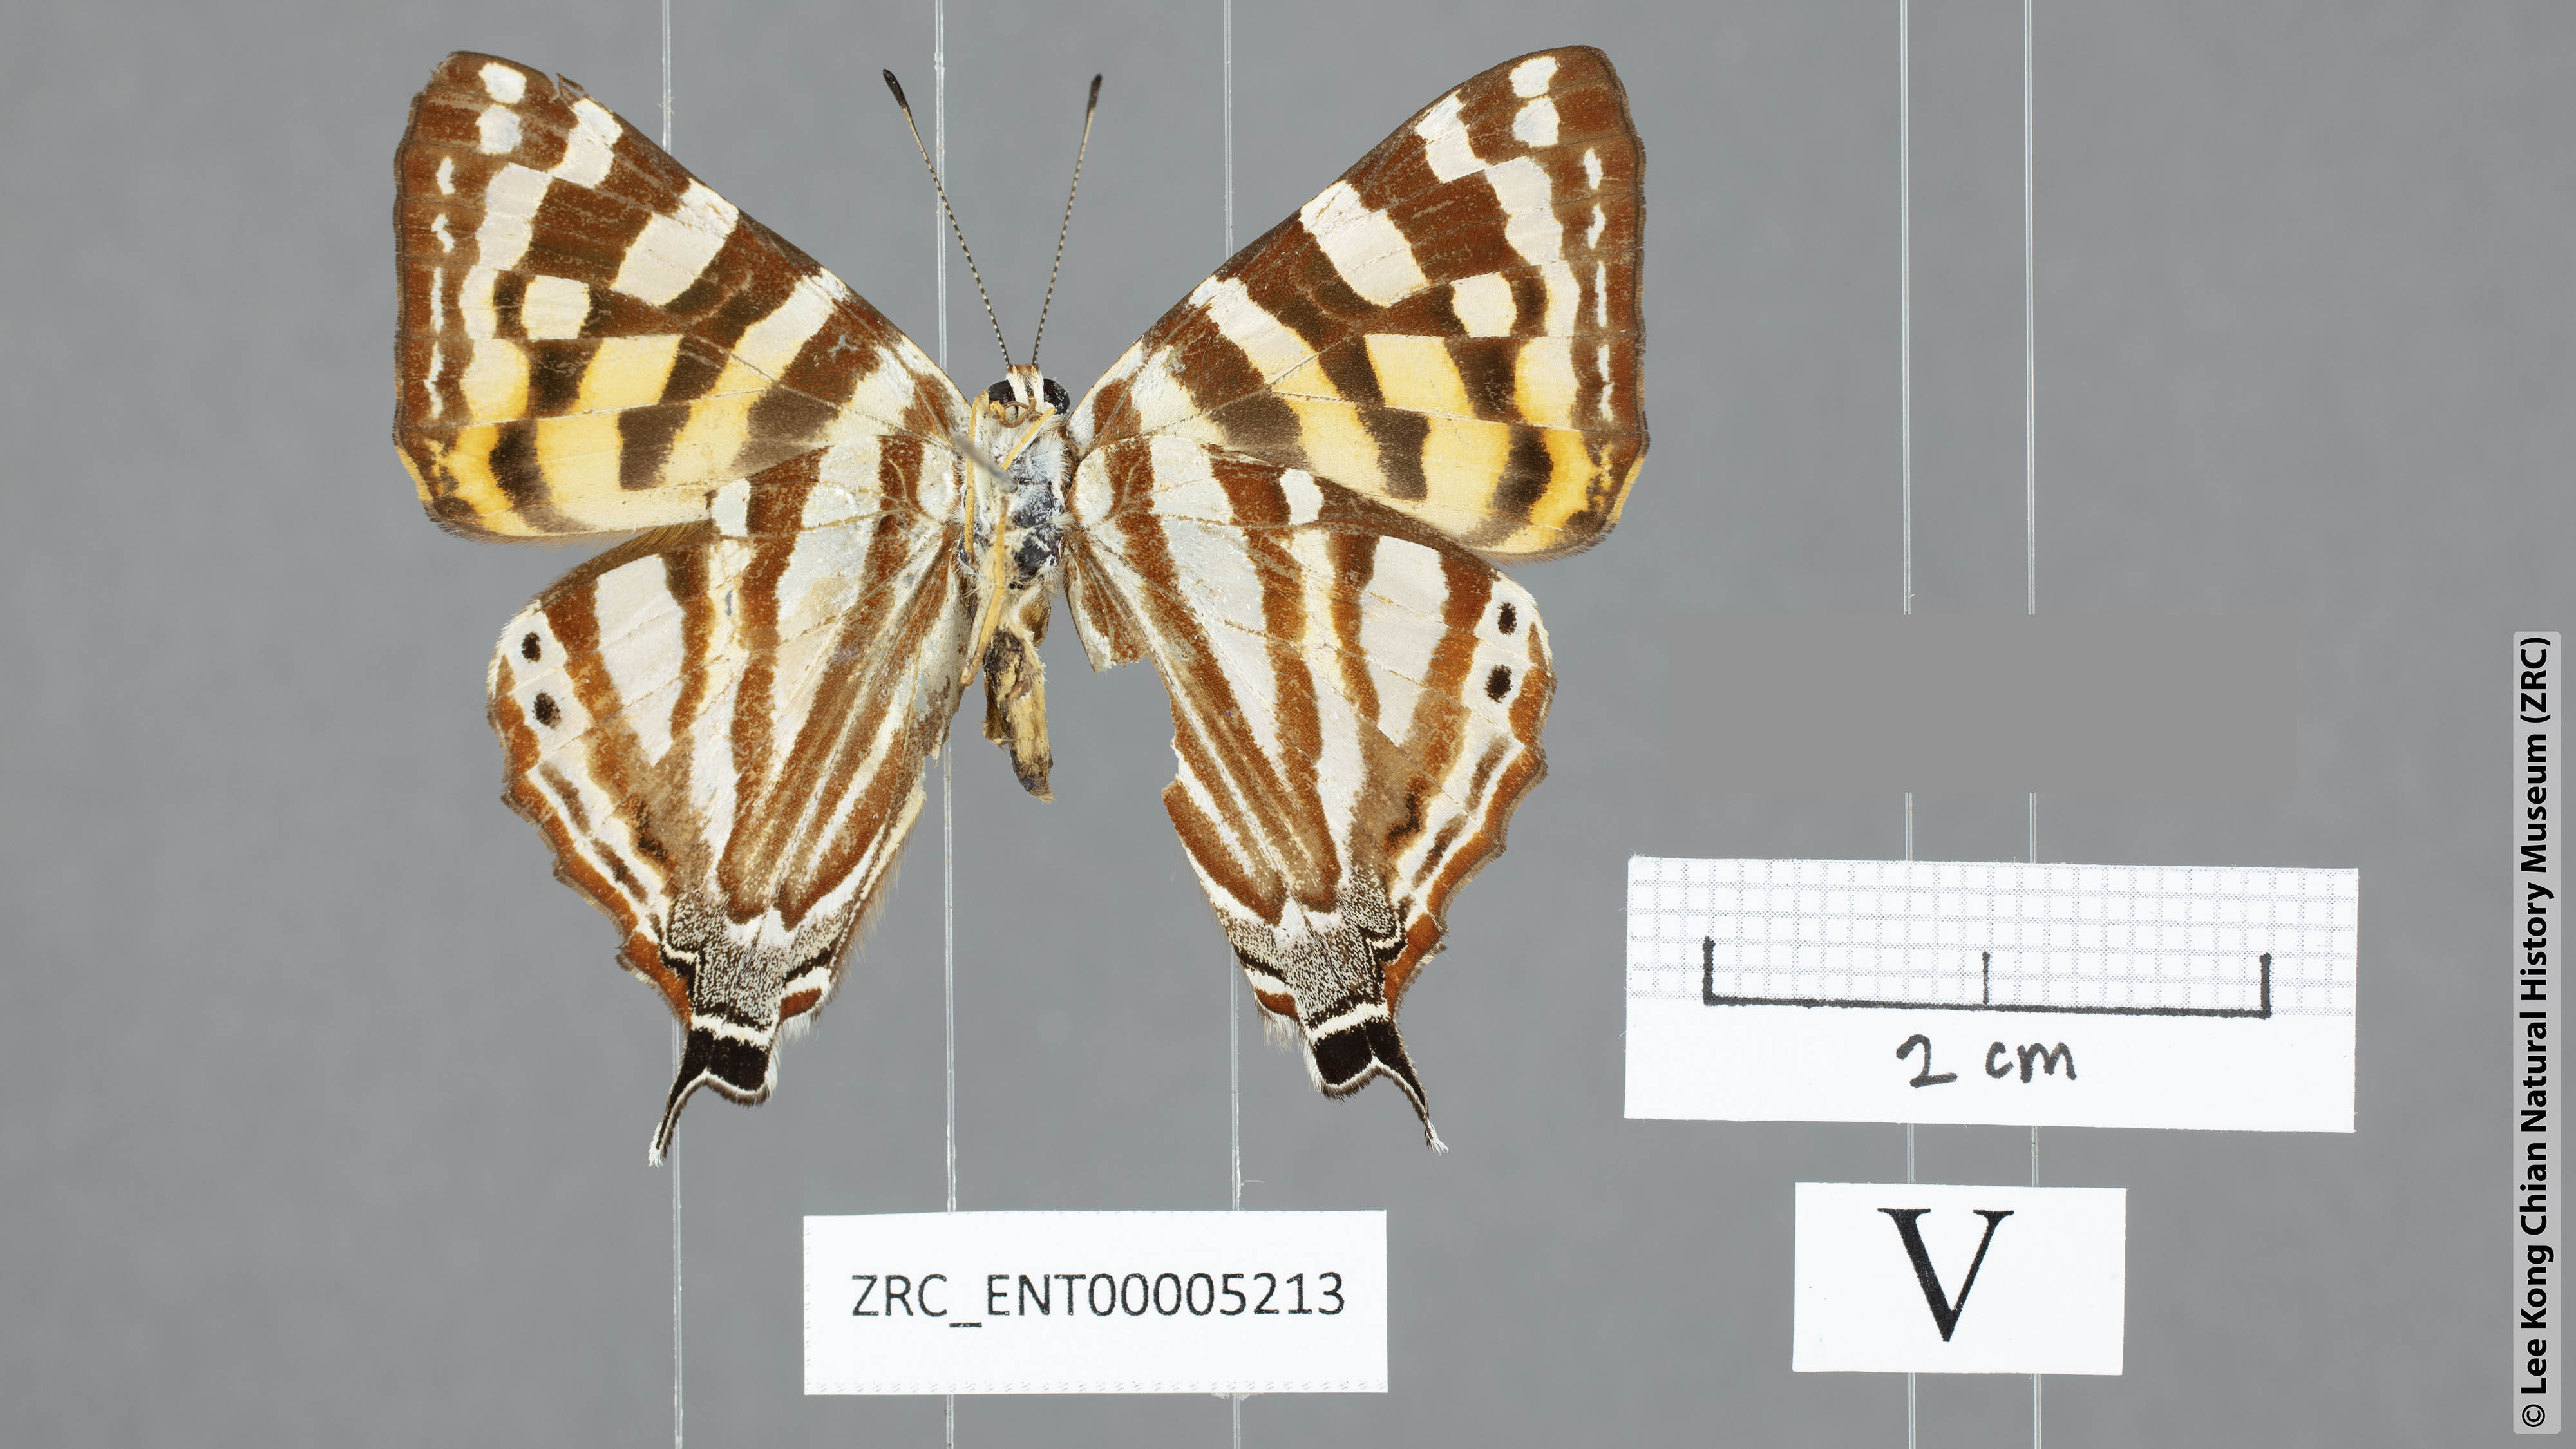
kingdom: Animalia
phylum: Arthropoda
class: Insecta
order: Lepidoptera
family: Lycaenidae
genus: Dodona
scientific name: Dodona egeon
